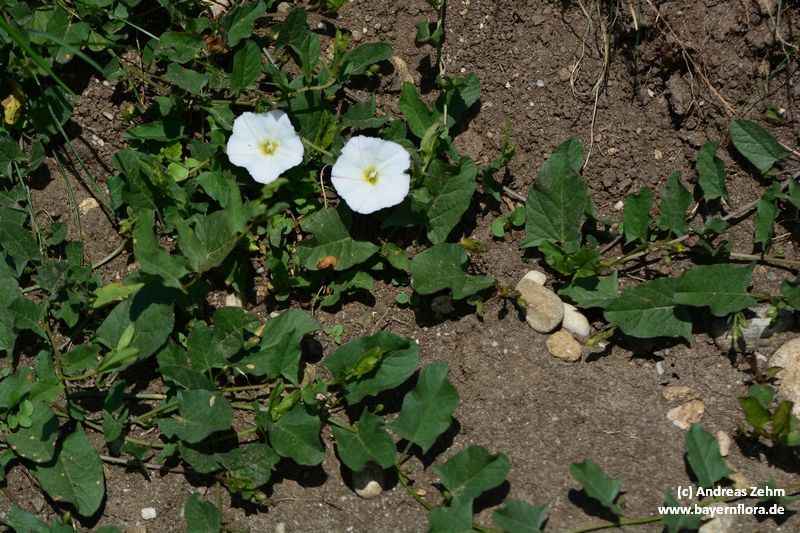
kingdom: Plantae
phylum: Tracheophyta
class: Magnoliopsida
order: Solanales
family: Convolvulaceae
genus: Convolvulus
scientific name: Convolvulus arvensis
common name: Field bindweed
